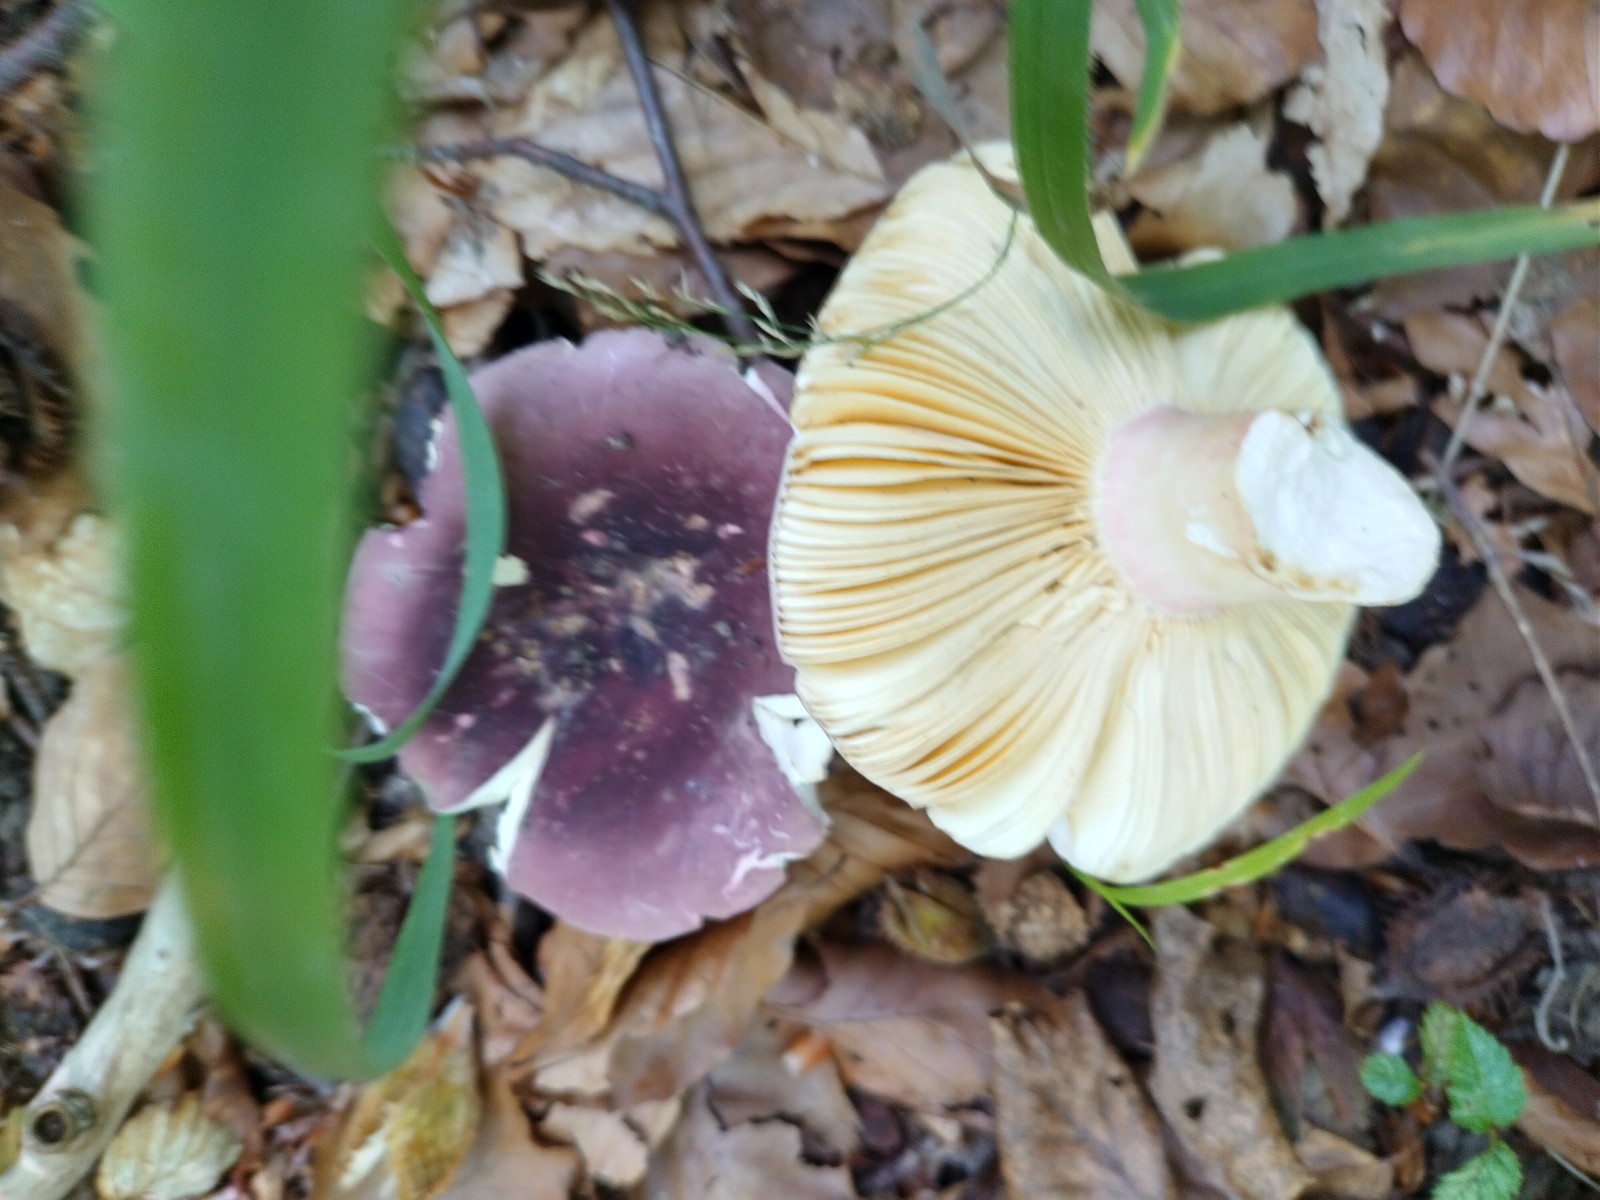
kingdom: Fungi
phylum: Basidiomycota
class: Agaricomycetes
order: Russulales
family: Russulaceae
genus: Russula
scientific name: Russula olivacea
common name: stor skørhat
